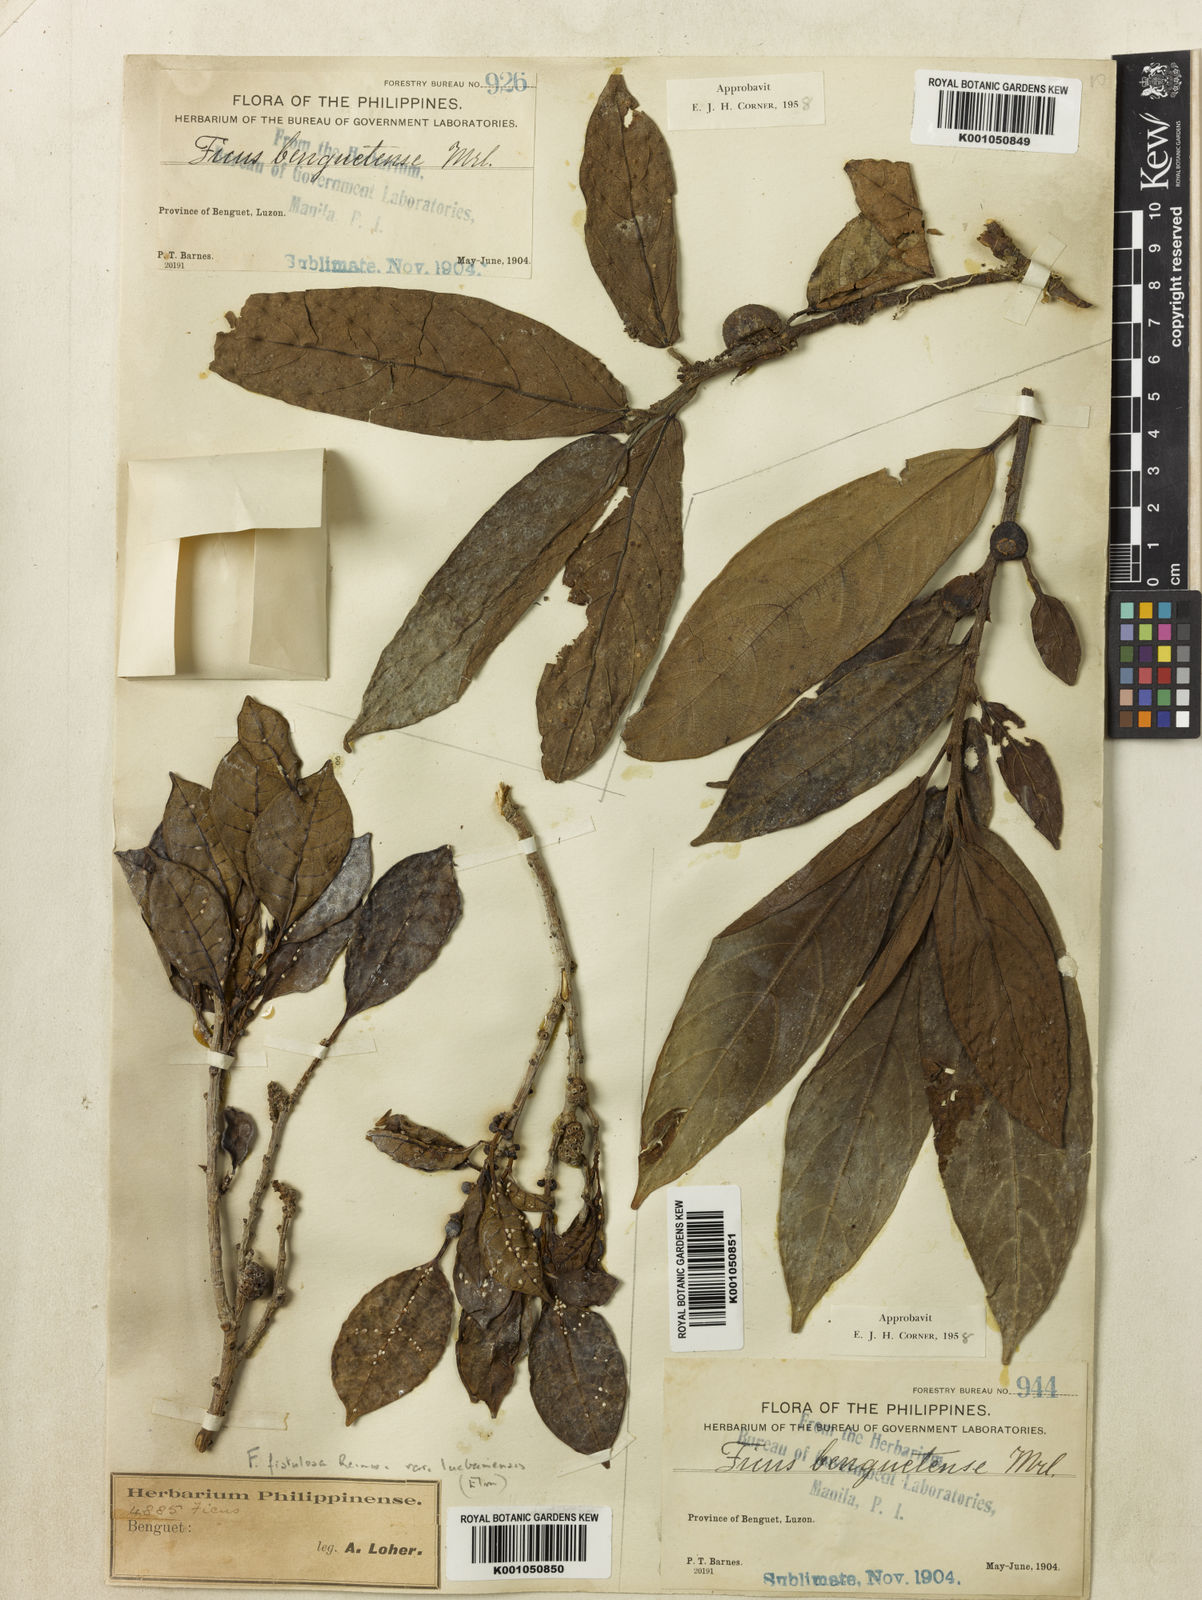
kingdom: Plantae
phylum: Tracheophyta
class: Magnoliopsida
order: Rosales
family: Moraceae
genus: Ficus
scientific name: Ficus benguetensis
